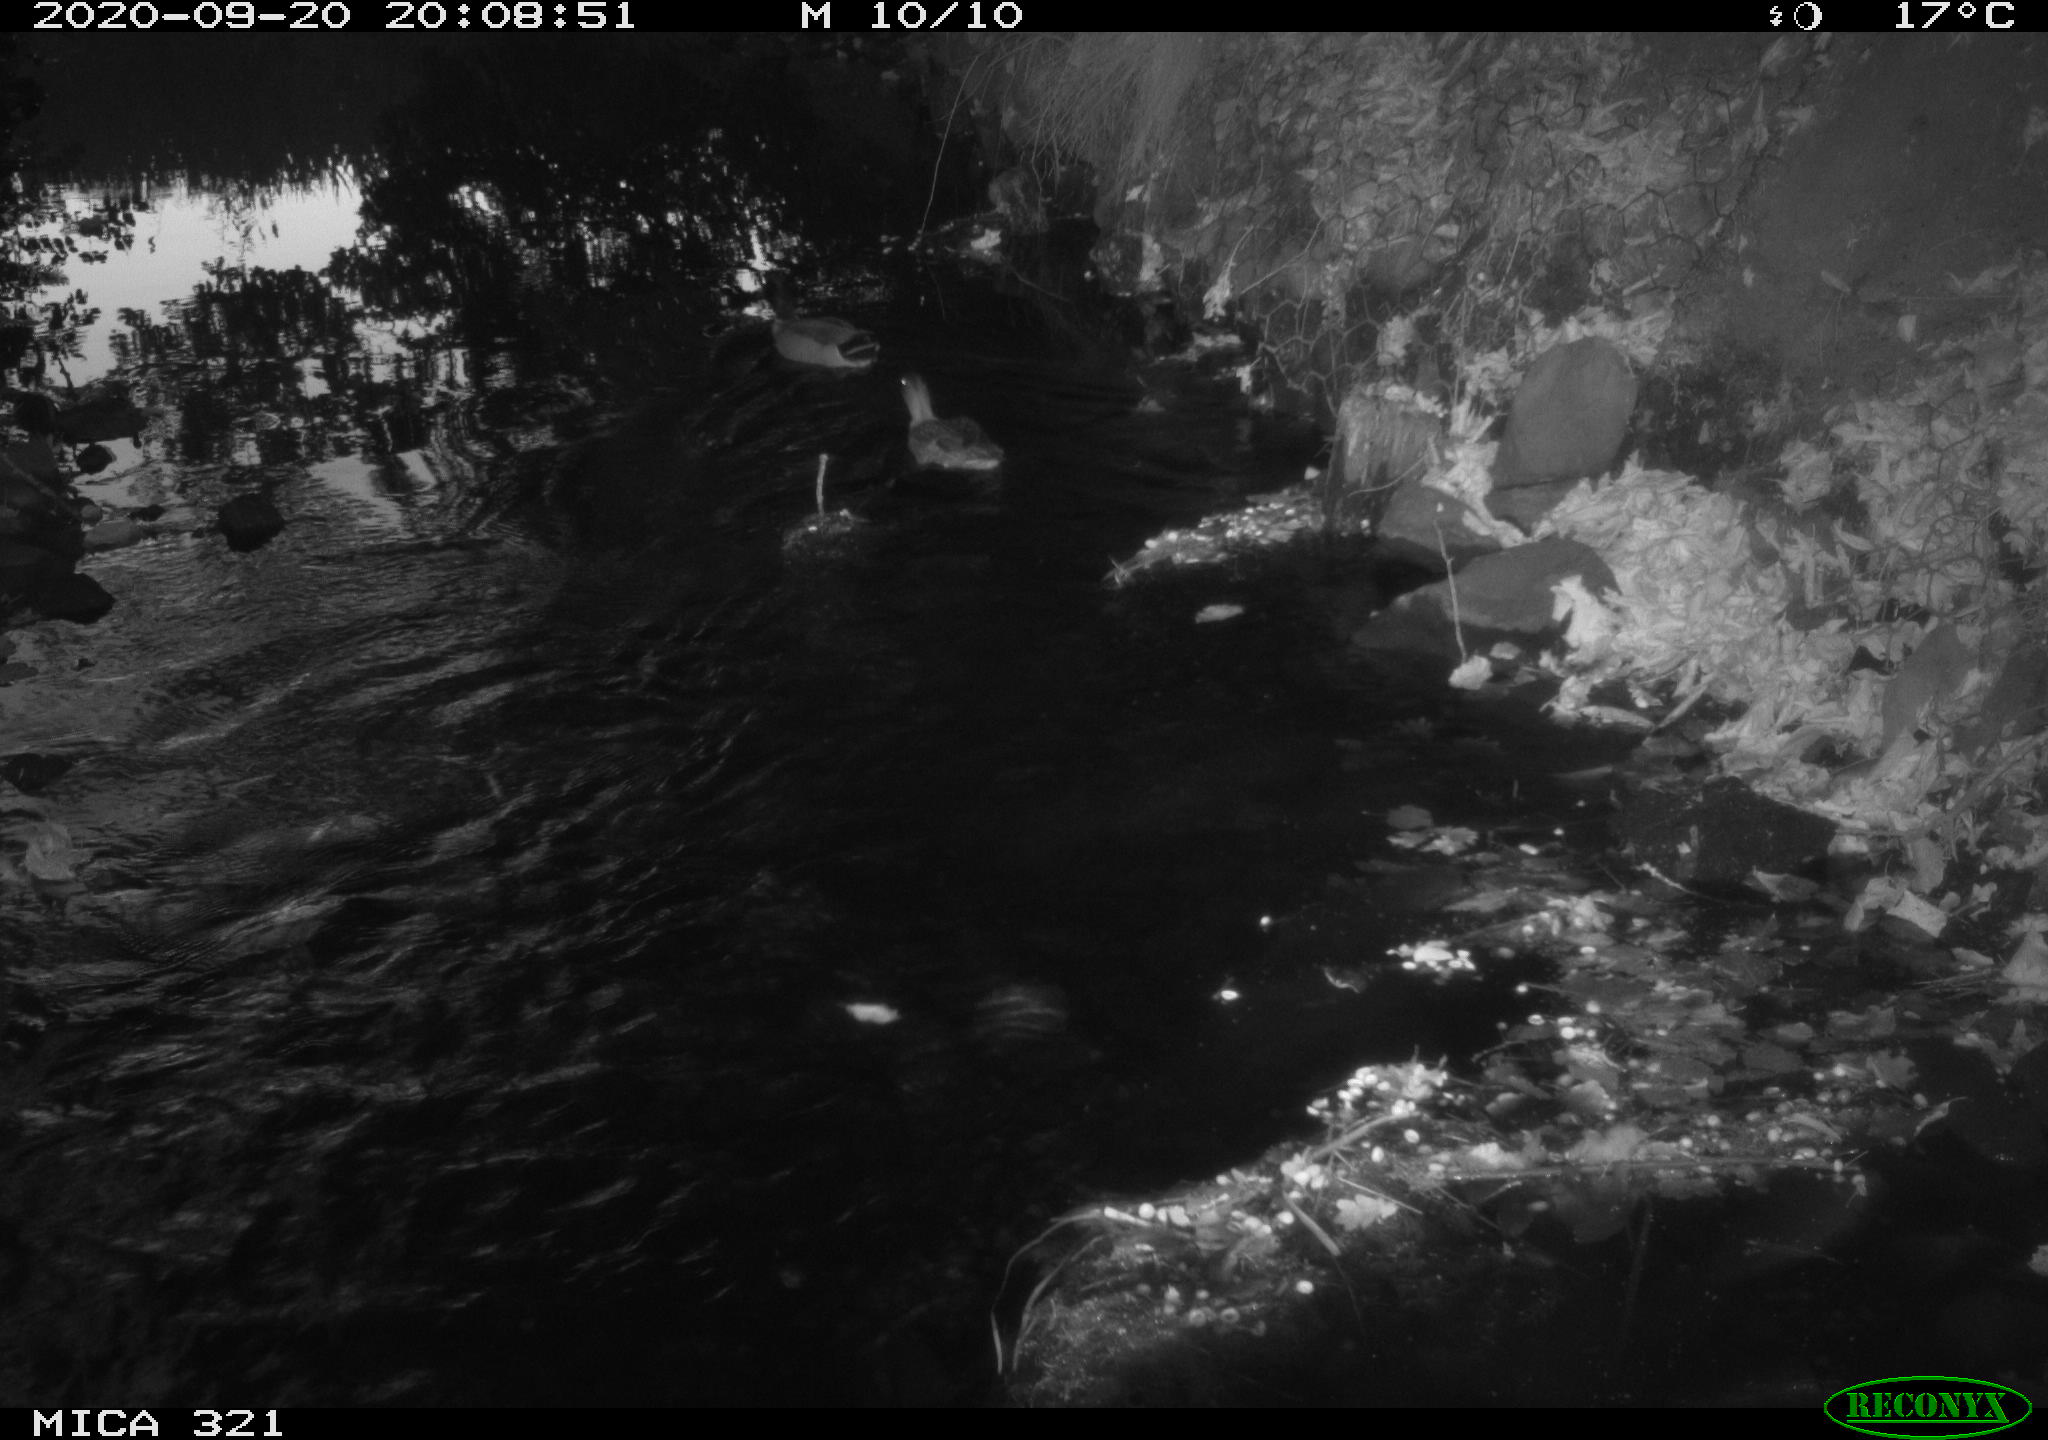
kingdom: Animalia
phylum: Chordata
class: Aves
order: Anseriformes
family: Anatidae
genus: Anas
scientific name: Anas platyrhynchos
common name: Mallard
